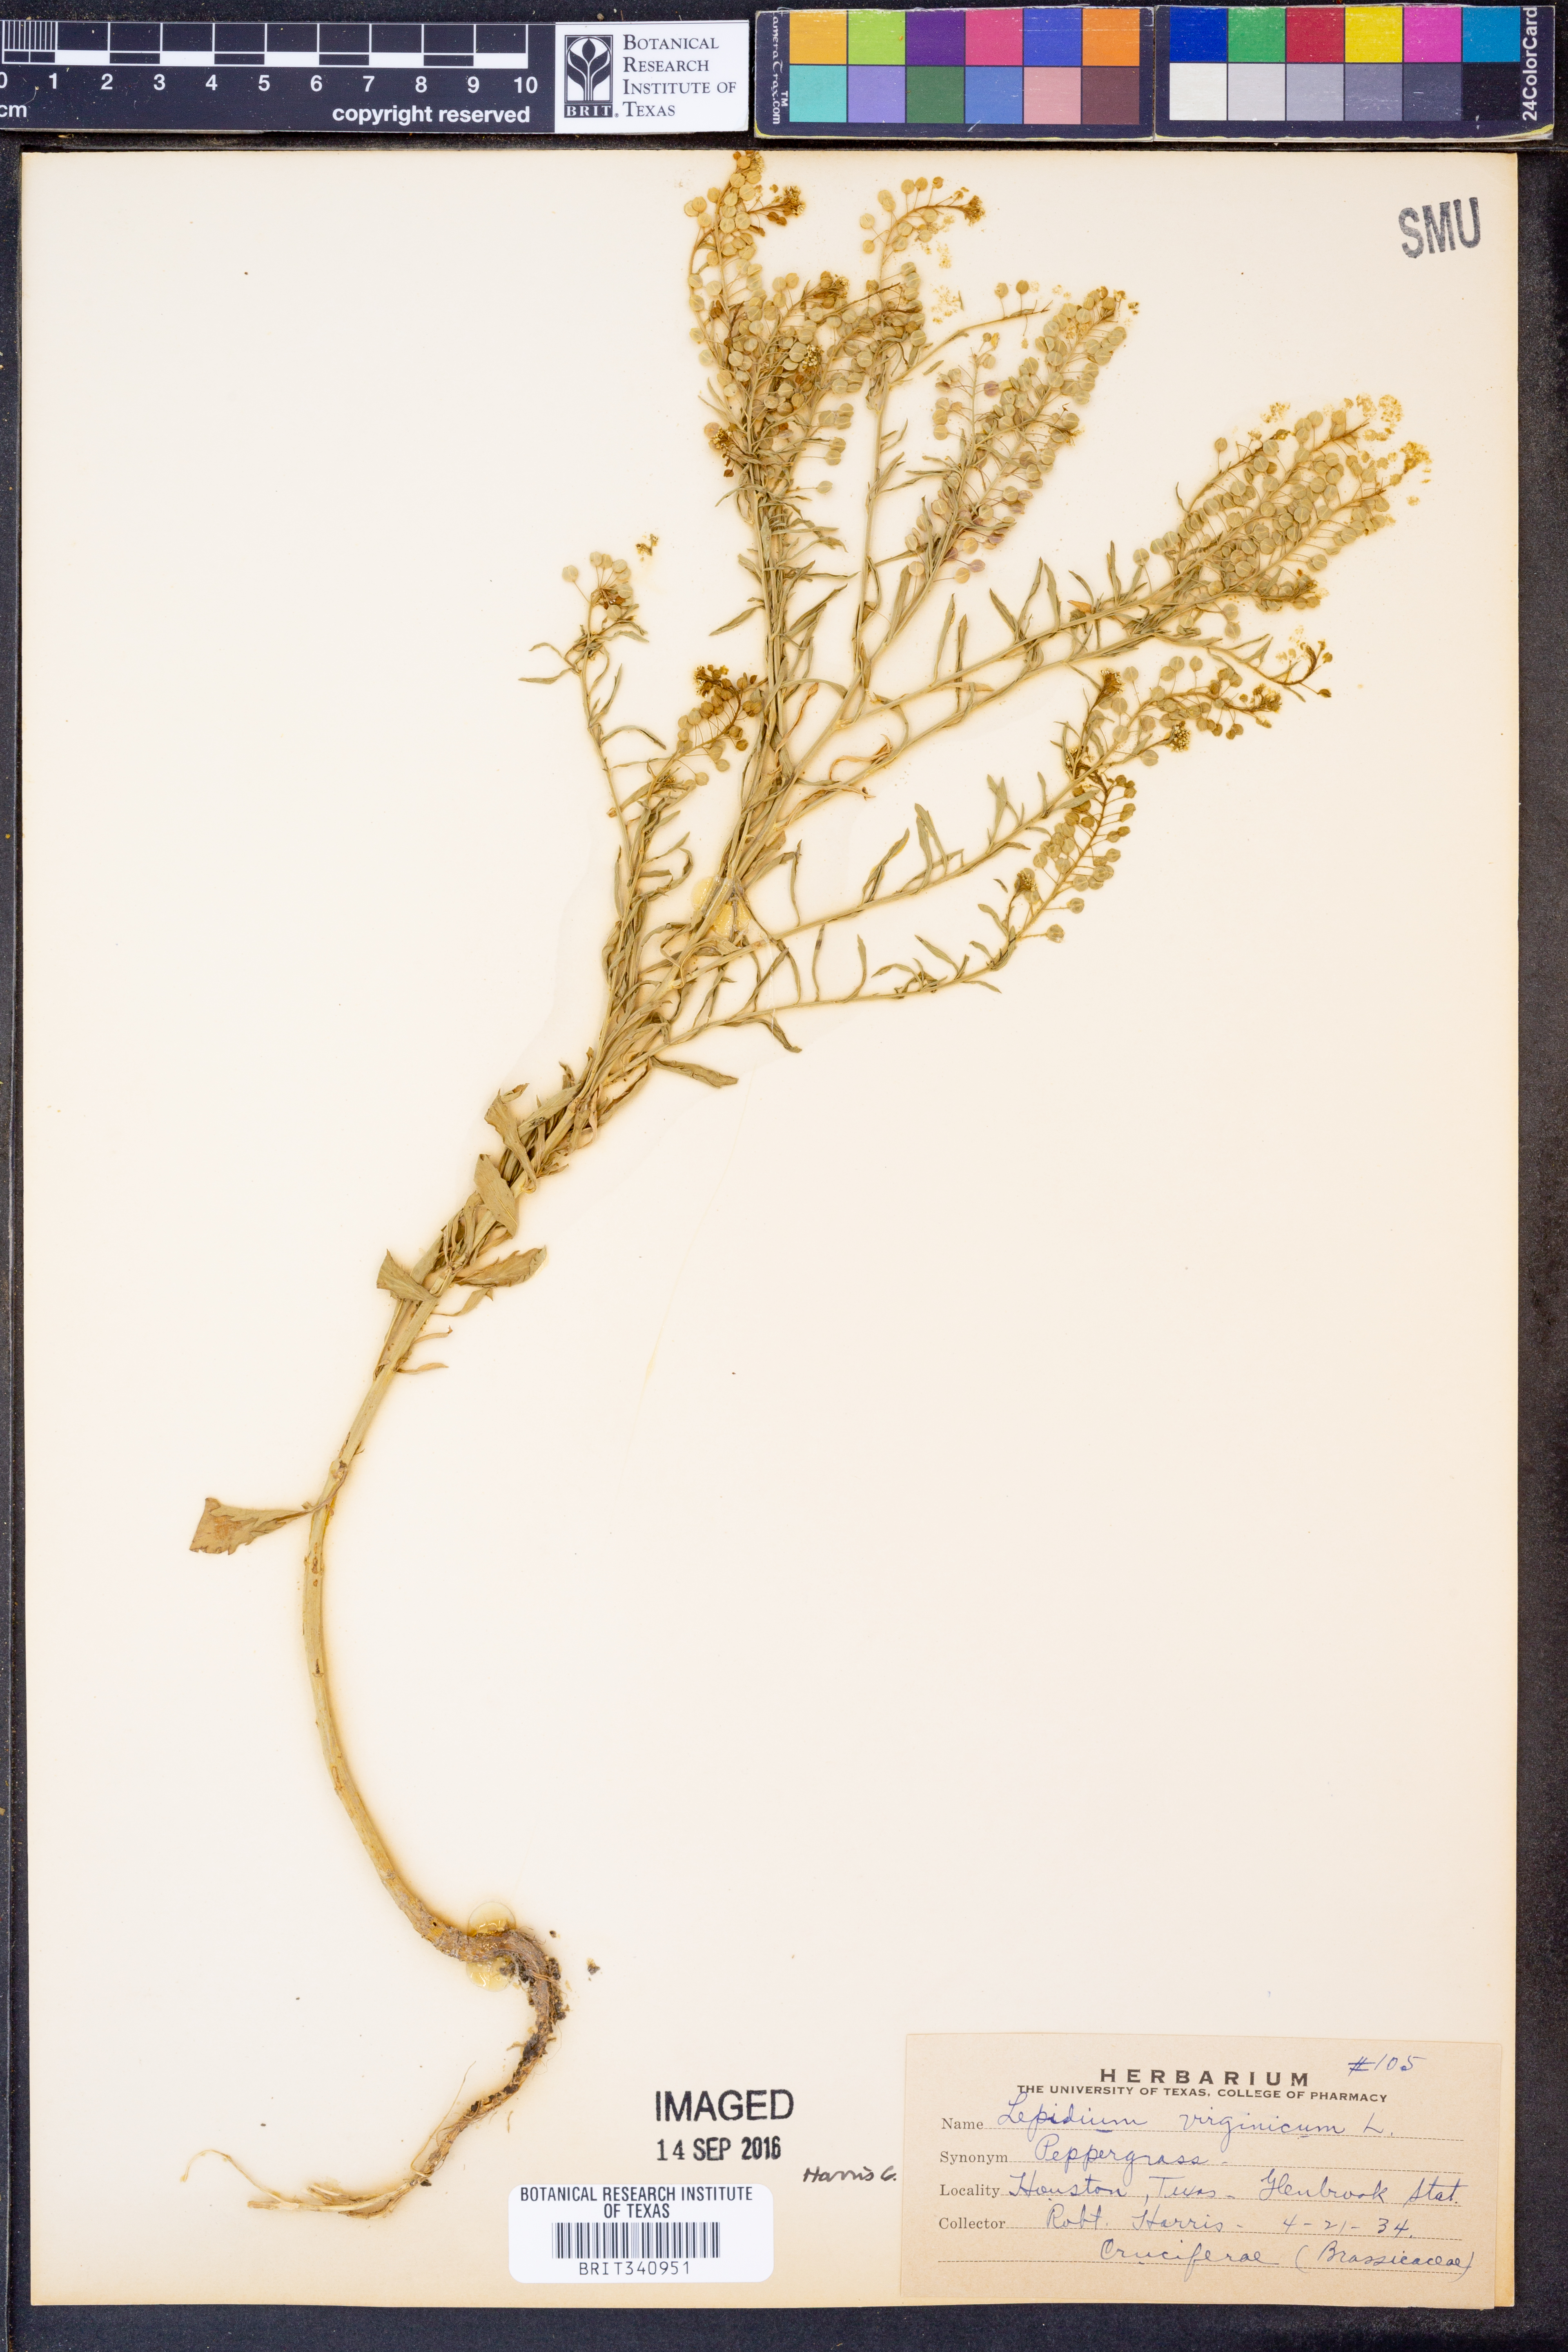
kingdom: Plantae
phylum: Tracheophyta
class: Magnoliopsida
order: Brassicales
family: Brassicaceae
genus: Lepidium
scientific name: Lepidium virginicum
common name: Least pepperwort
